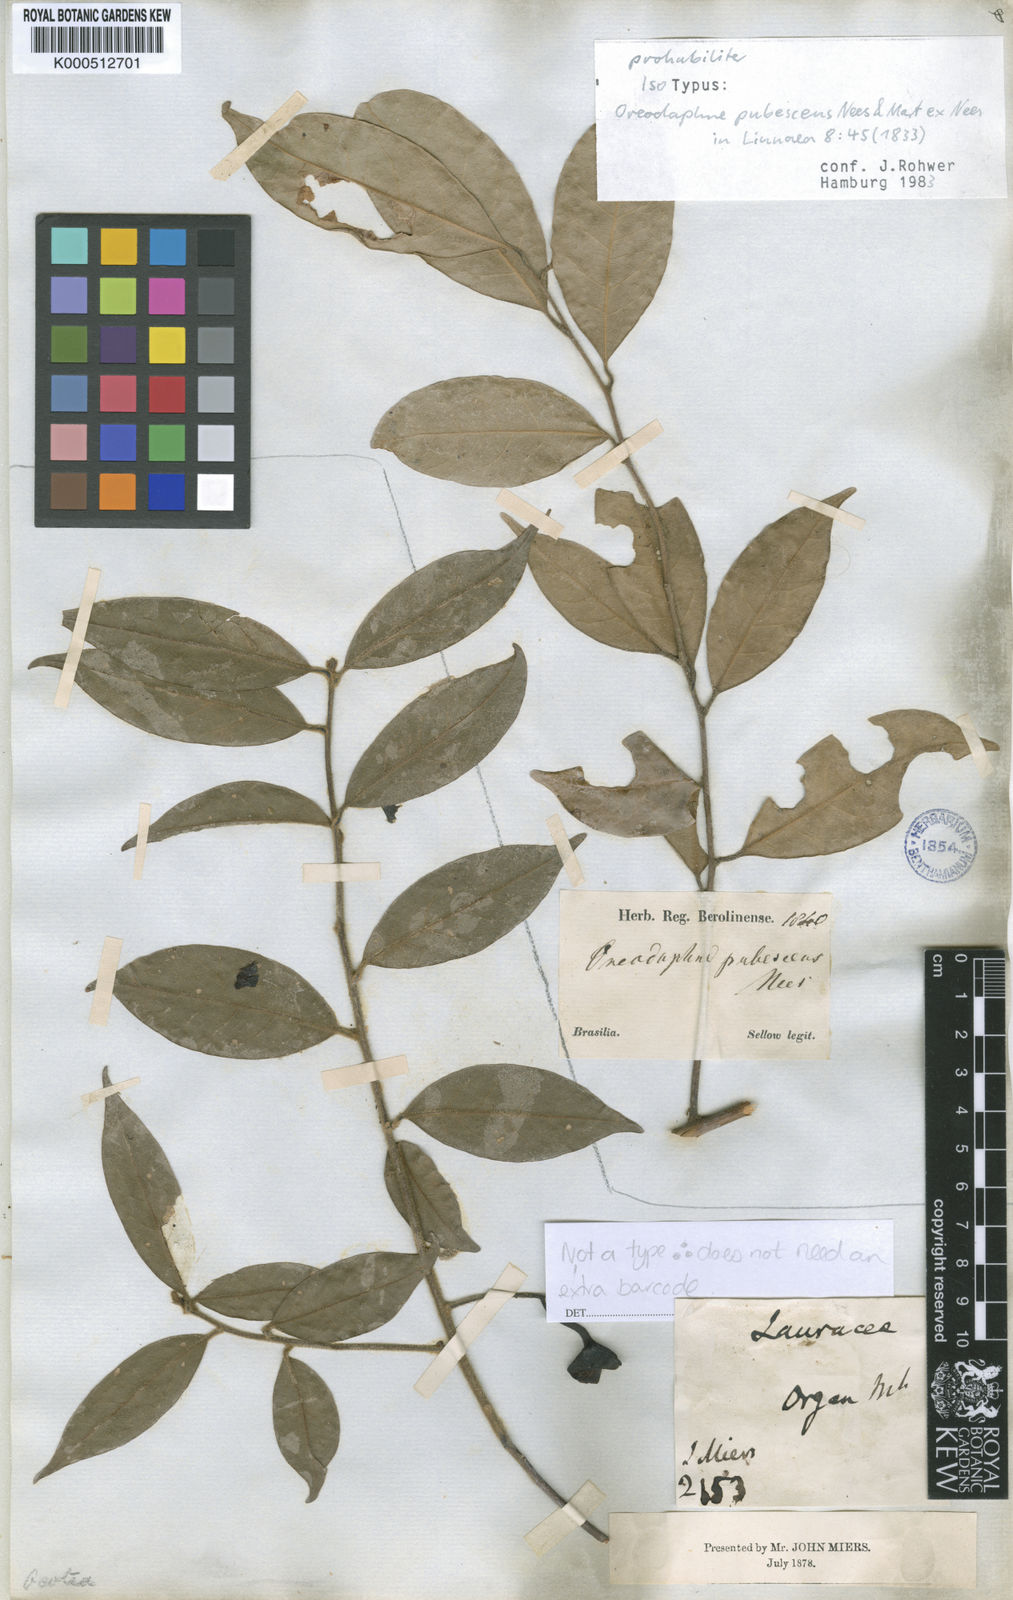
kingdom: Plantae
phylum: Tracheophyta
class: Magnoliopsida
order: Laurales
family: Lauraceae
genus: Phoebe
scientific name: Phoebe cathia
